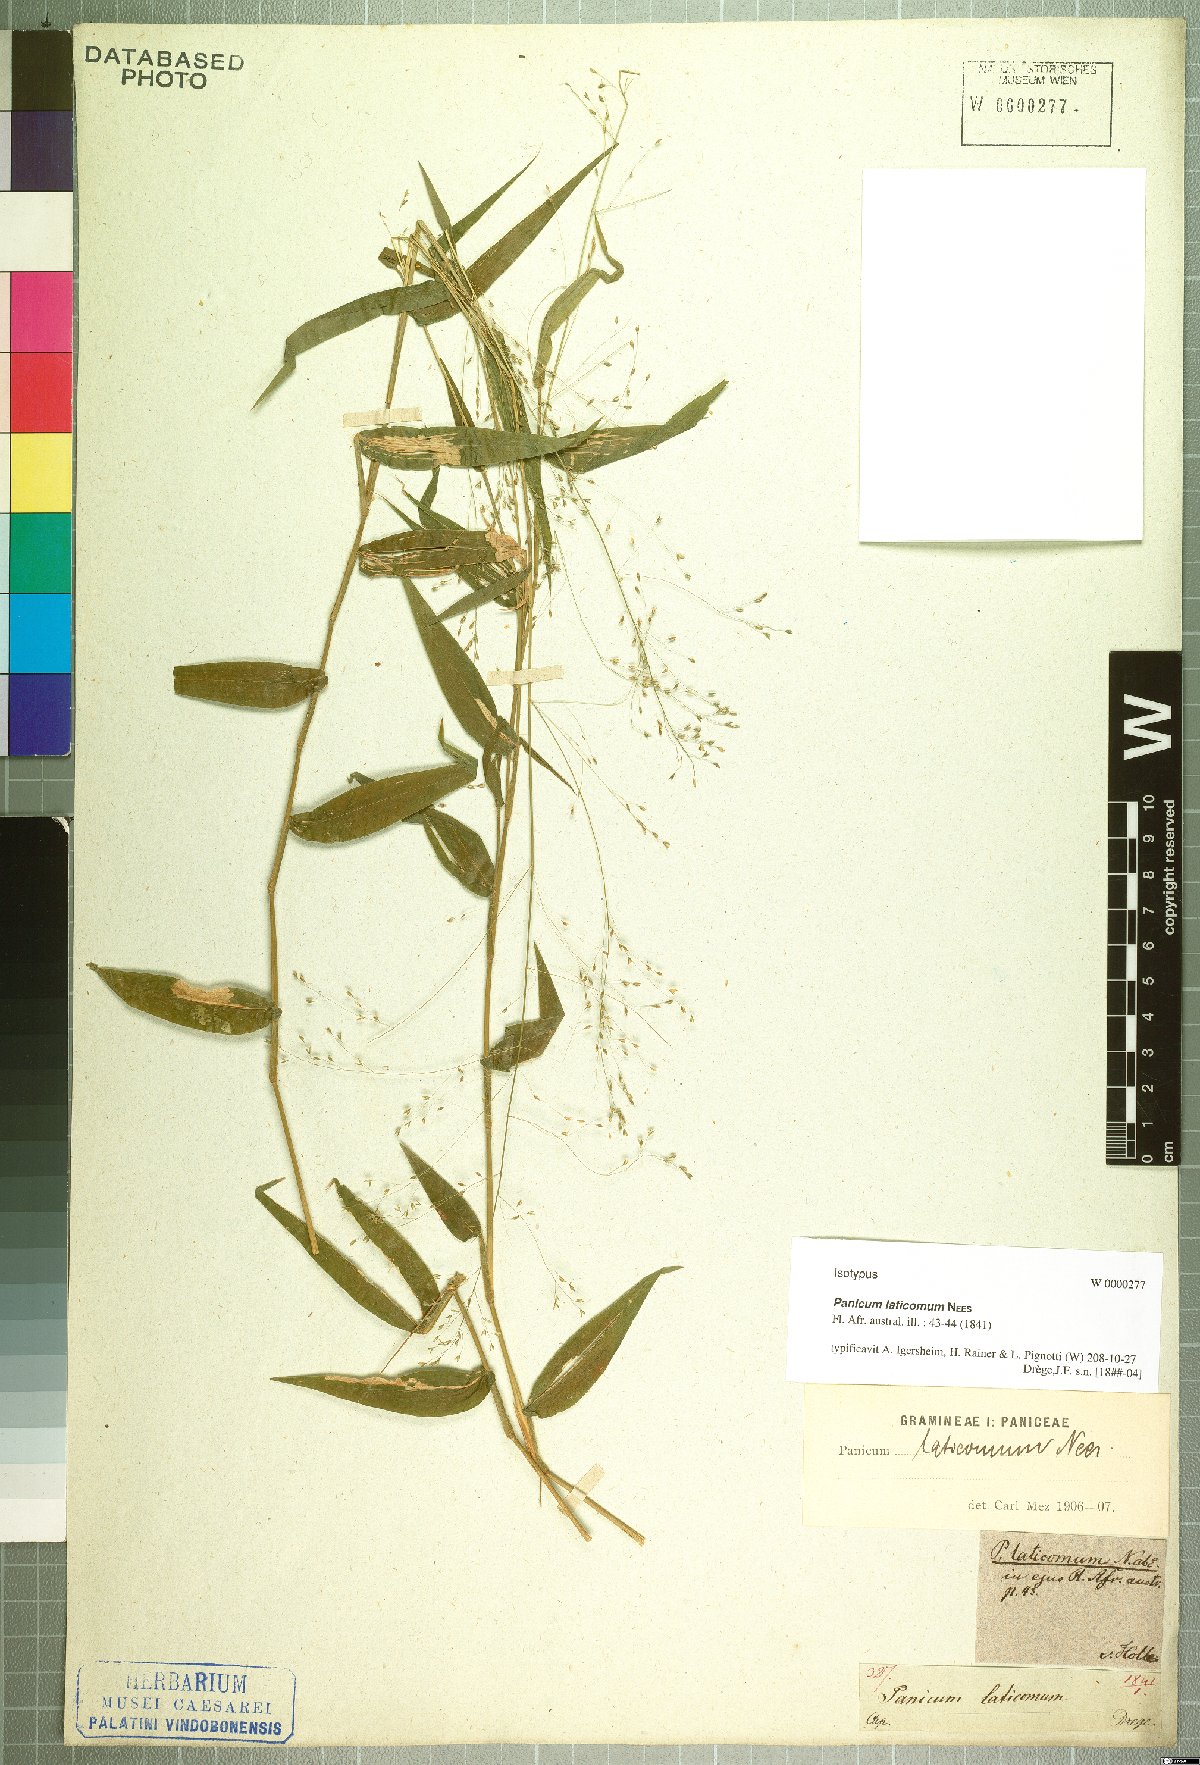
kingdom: Plantae
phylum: Tracheophyta
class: Liliopsida
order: Poales
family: Poaceae
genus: Panicum
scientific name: Panicum laticomum
